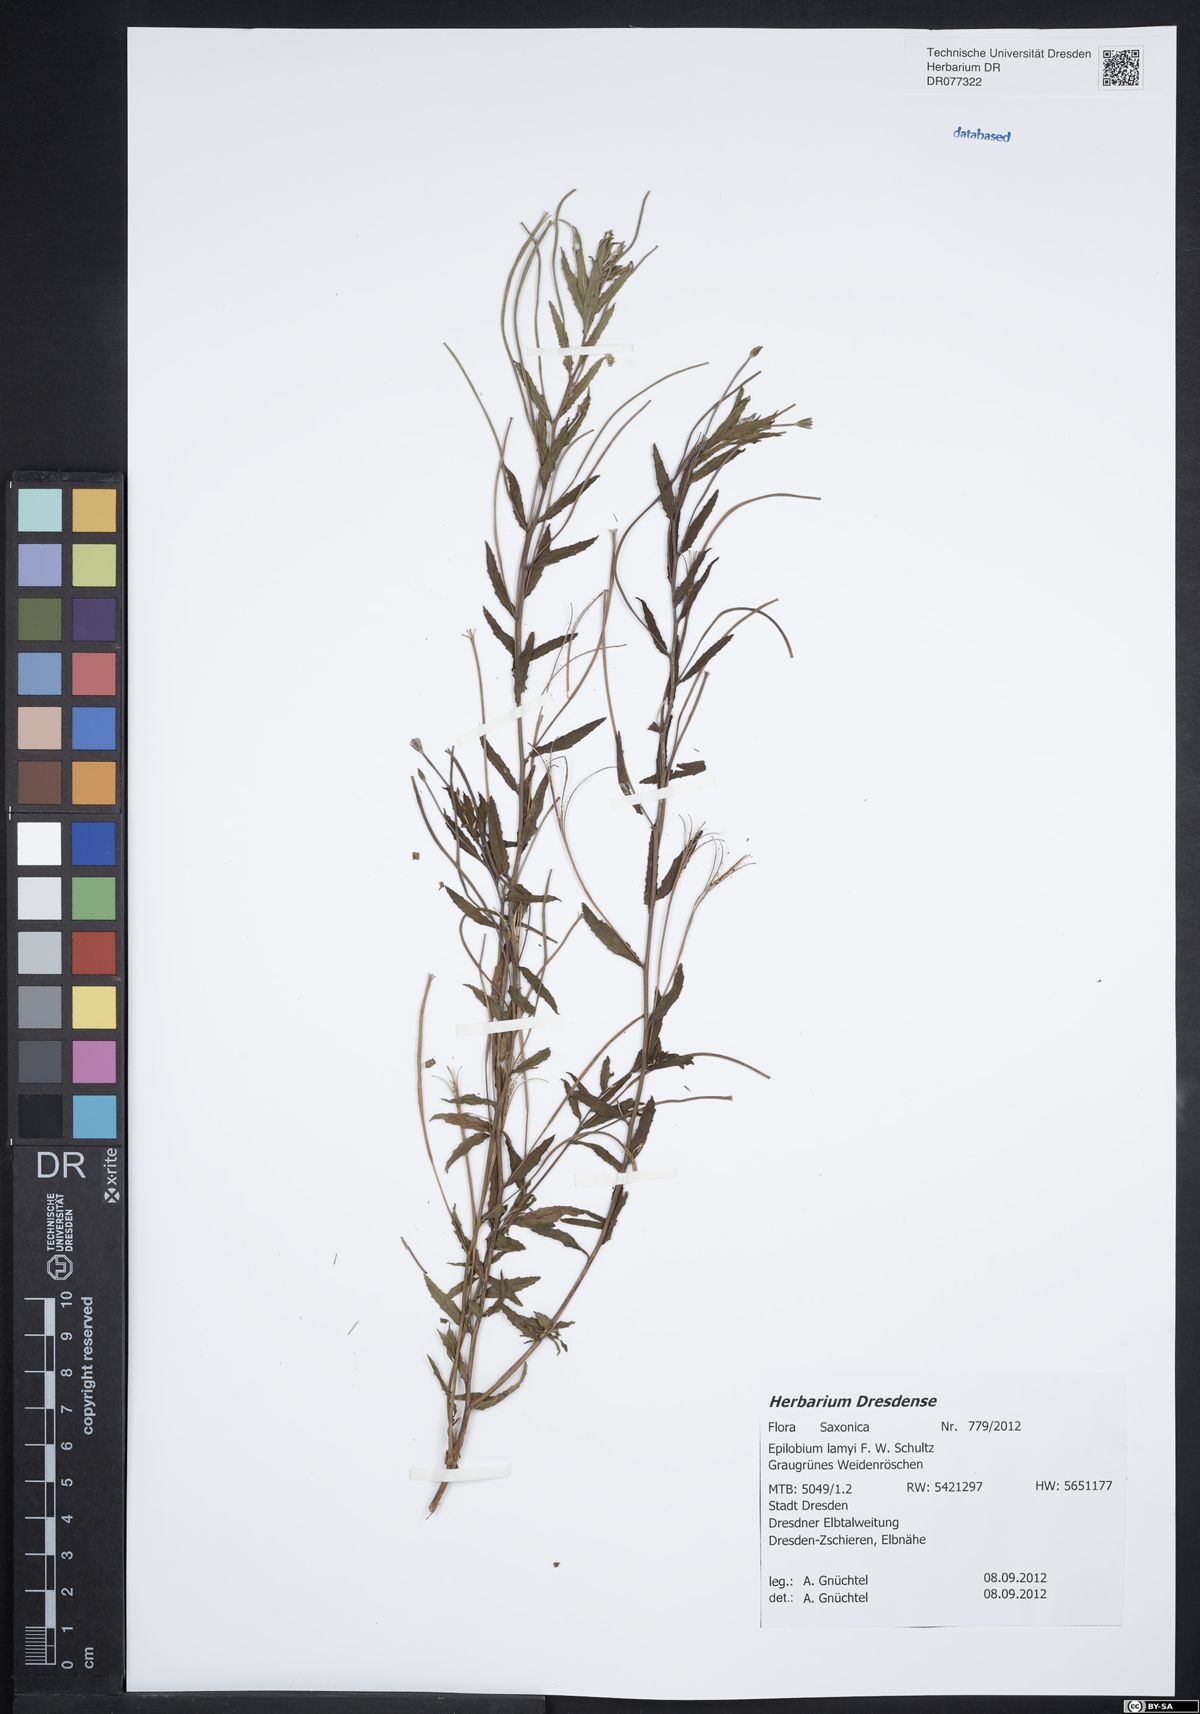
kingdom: Plantae
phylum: Tracheophyta
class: Magnoliopsida
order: Myrtales
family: Onagraceae
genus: Epilobium
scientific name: Epilobium lamyi
